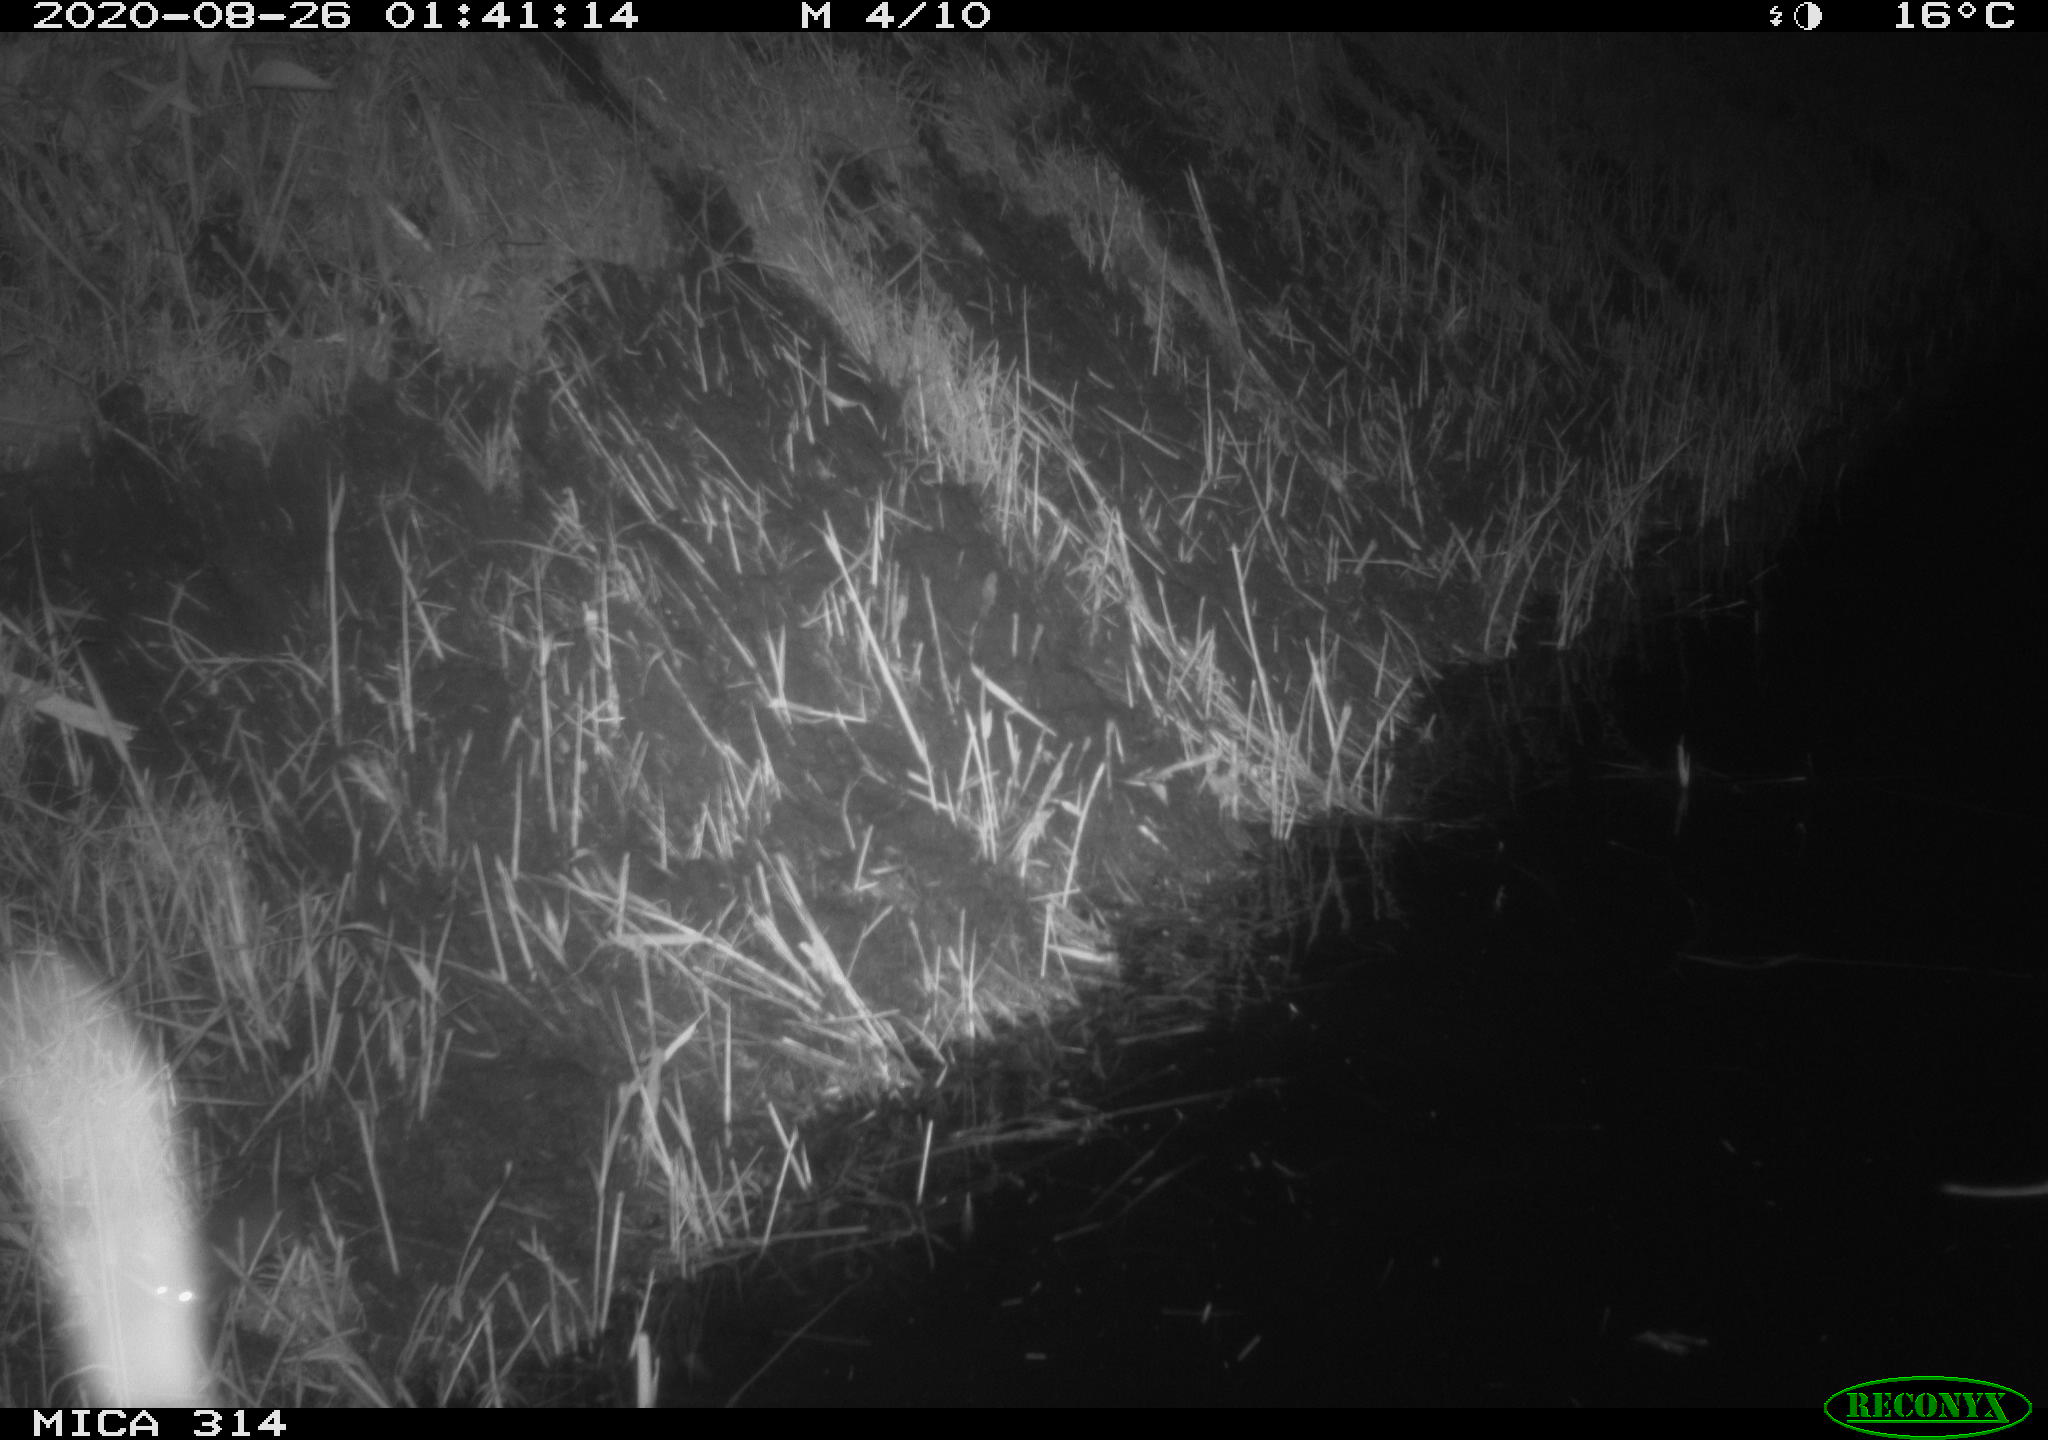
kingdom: Animalia
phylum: Chordata
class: Mammalia
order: Rodentia
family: Muridae
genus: Rattus
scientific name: Rattus norvegicus
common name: Brown rat
